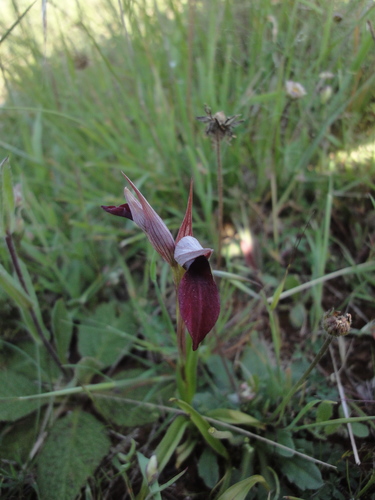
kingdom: Plantae
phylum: Tracheophyta
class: Liliopsida
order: Asparagales
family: Orchidaceae
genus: Serapias
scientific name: Serapias lingua
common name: Tongue-orchid
